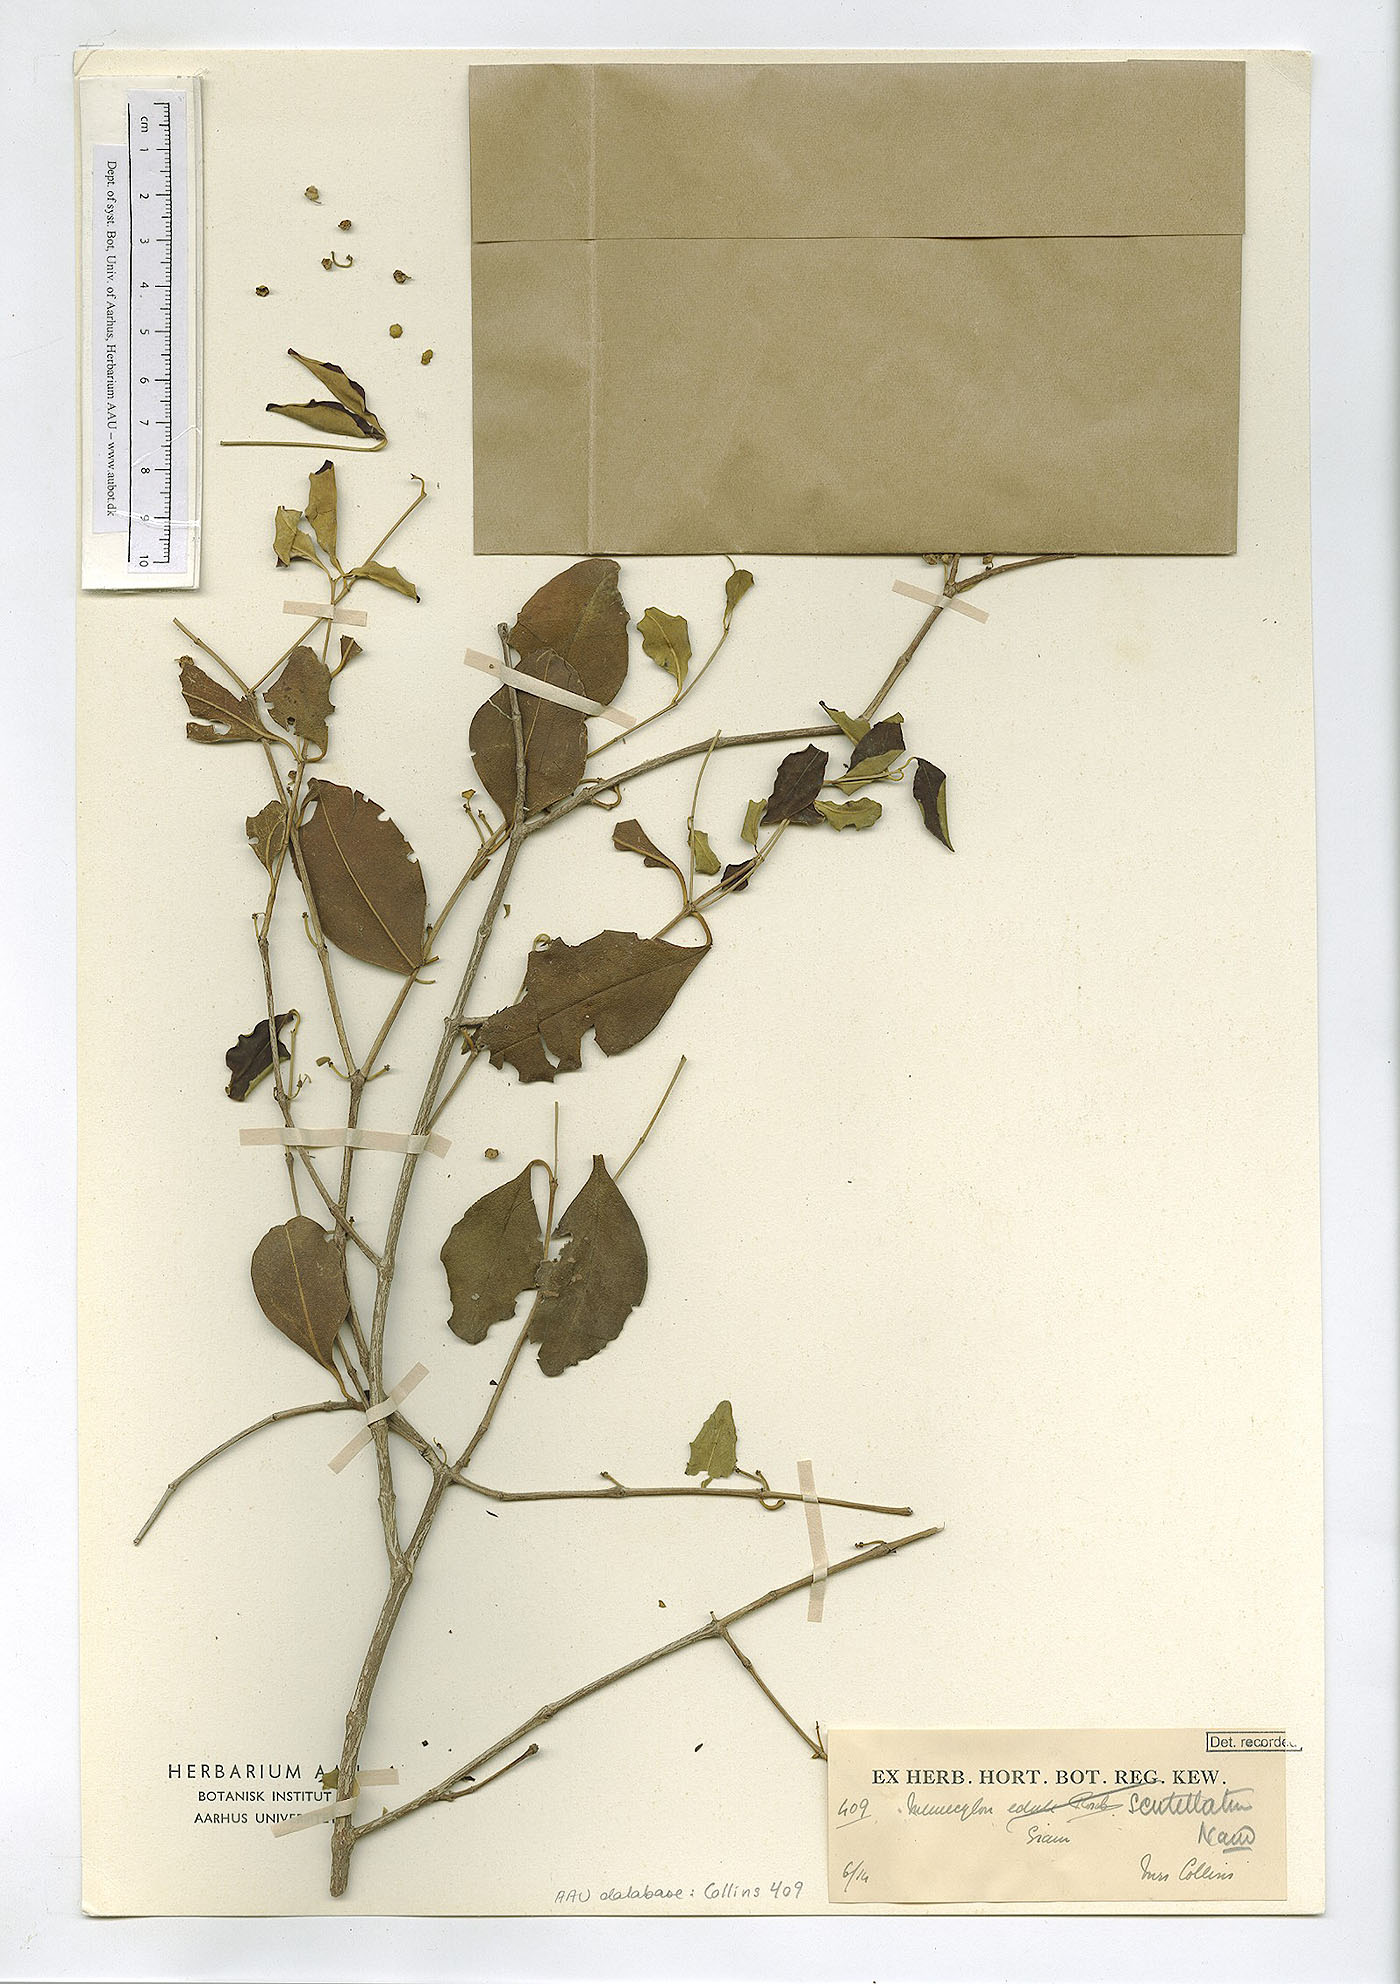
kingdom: Plantae
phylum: Tracheophyta
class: Magnoliopsida
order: Myrtales
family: Melastomataceae
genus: Memecylon
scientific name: Memecylon scutellatum
